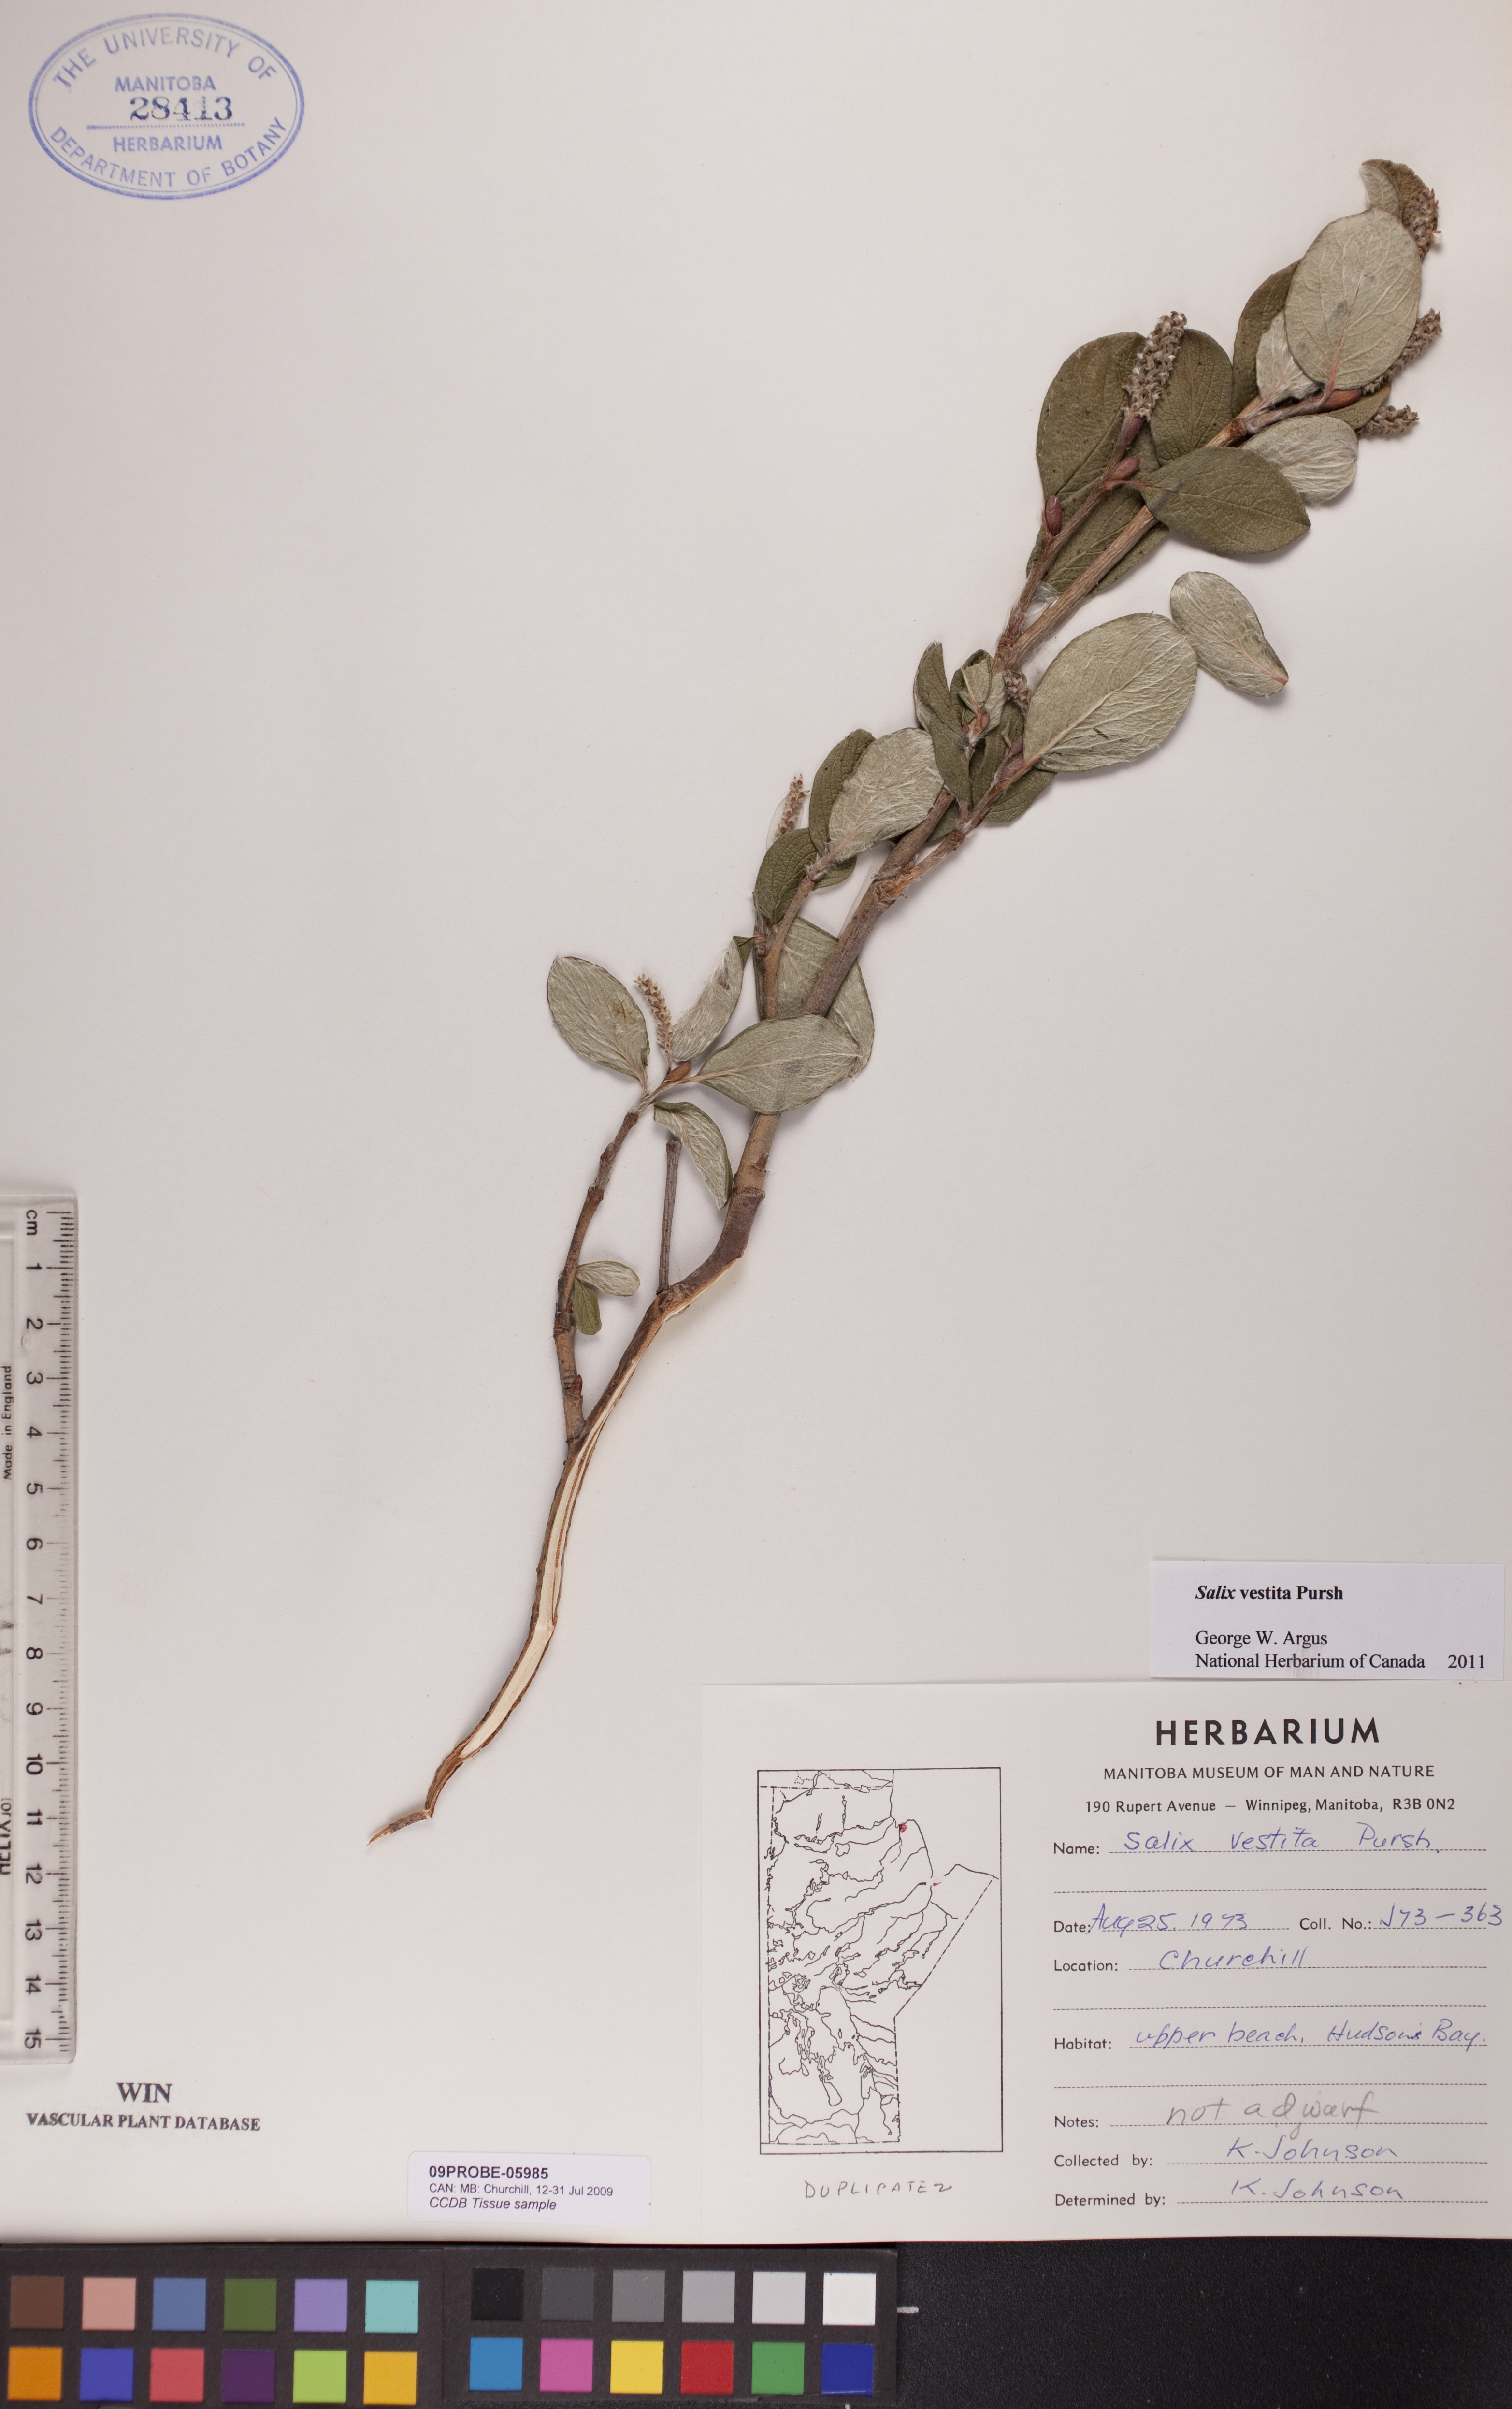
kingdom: Plantae
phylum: Tracheophyta
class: Magnoliopsida
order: Malpighiales
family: Salicaceae
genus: Salix
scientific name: Salix vestita
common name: Hairy willow
